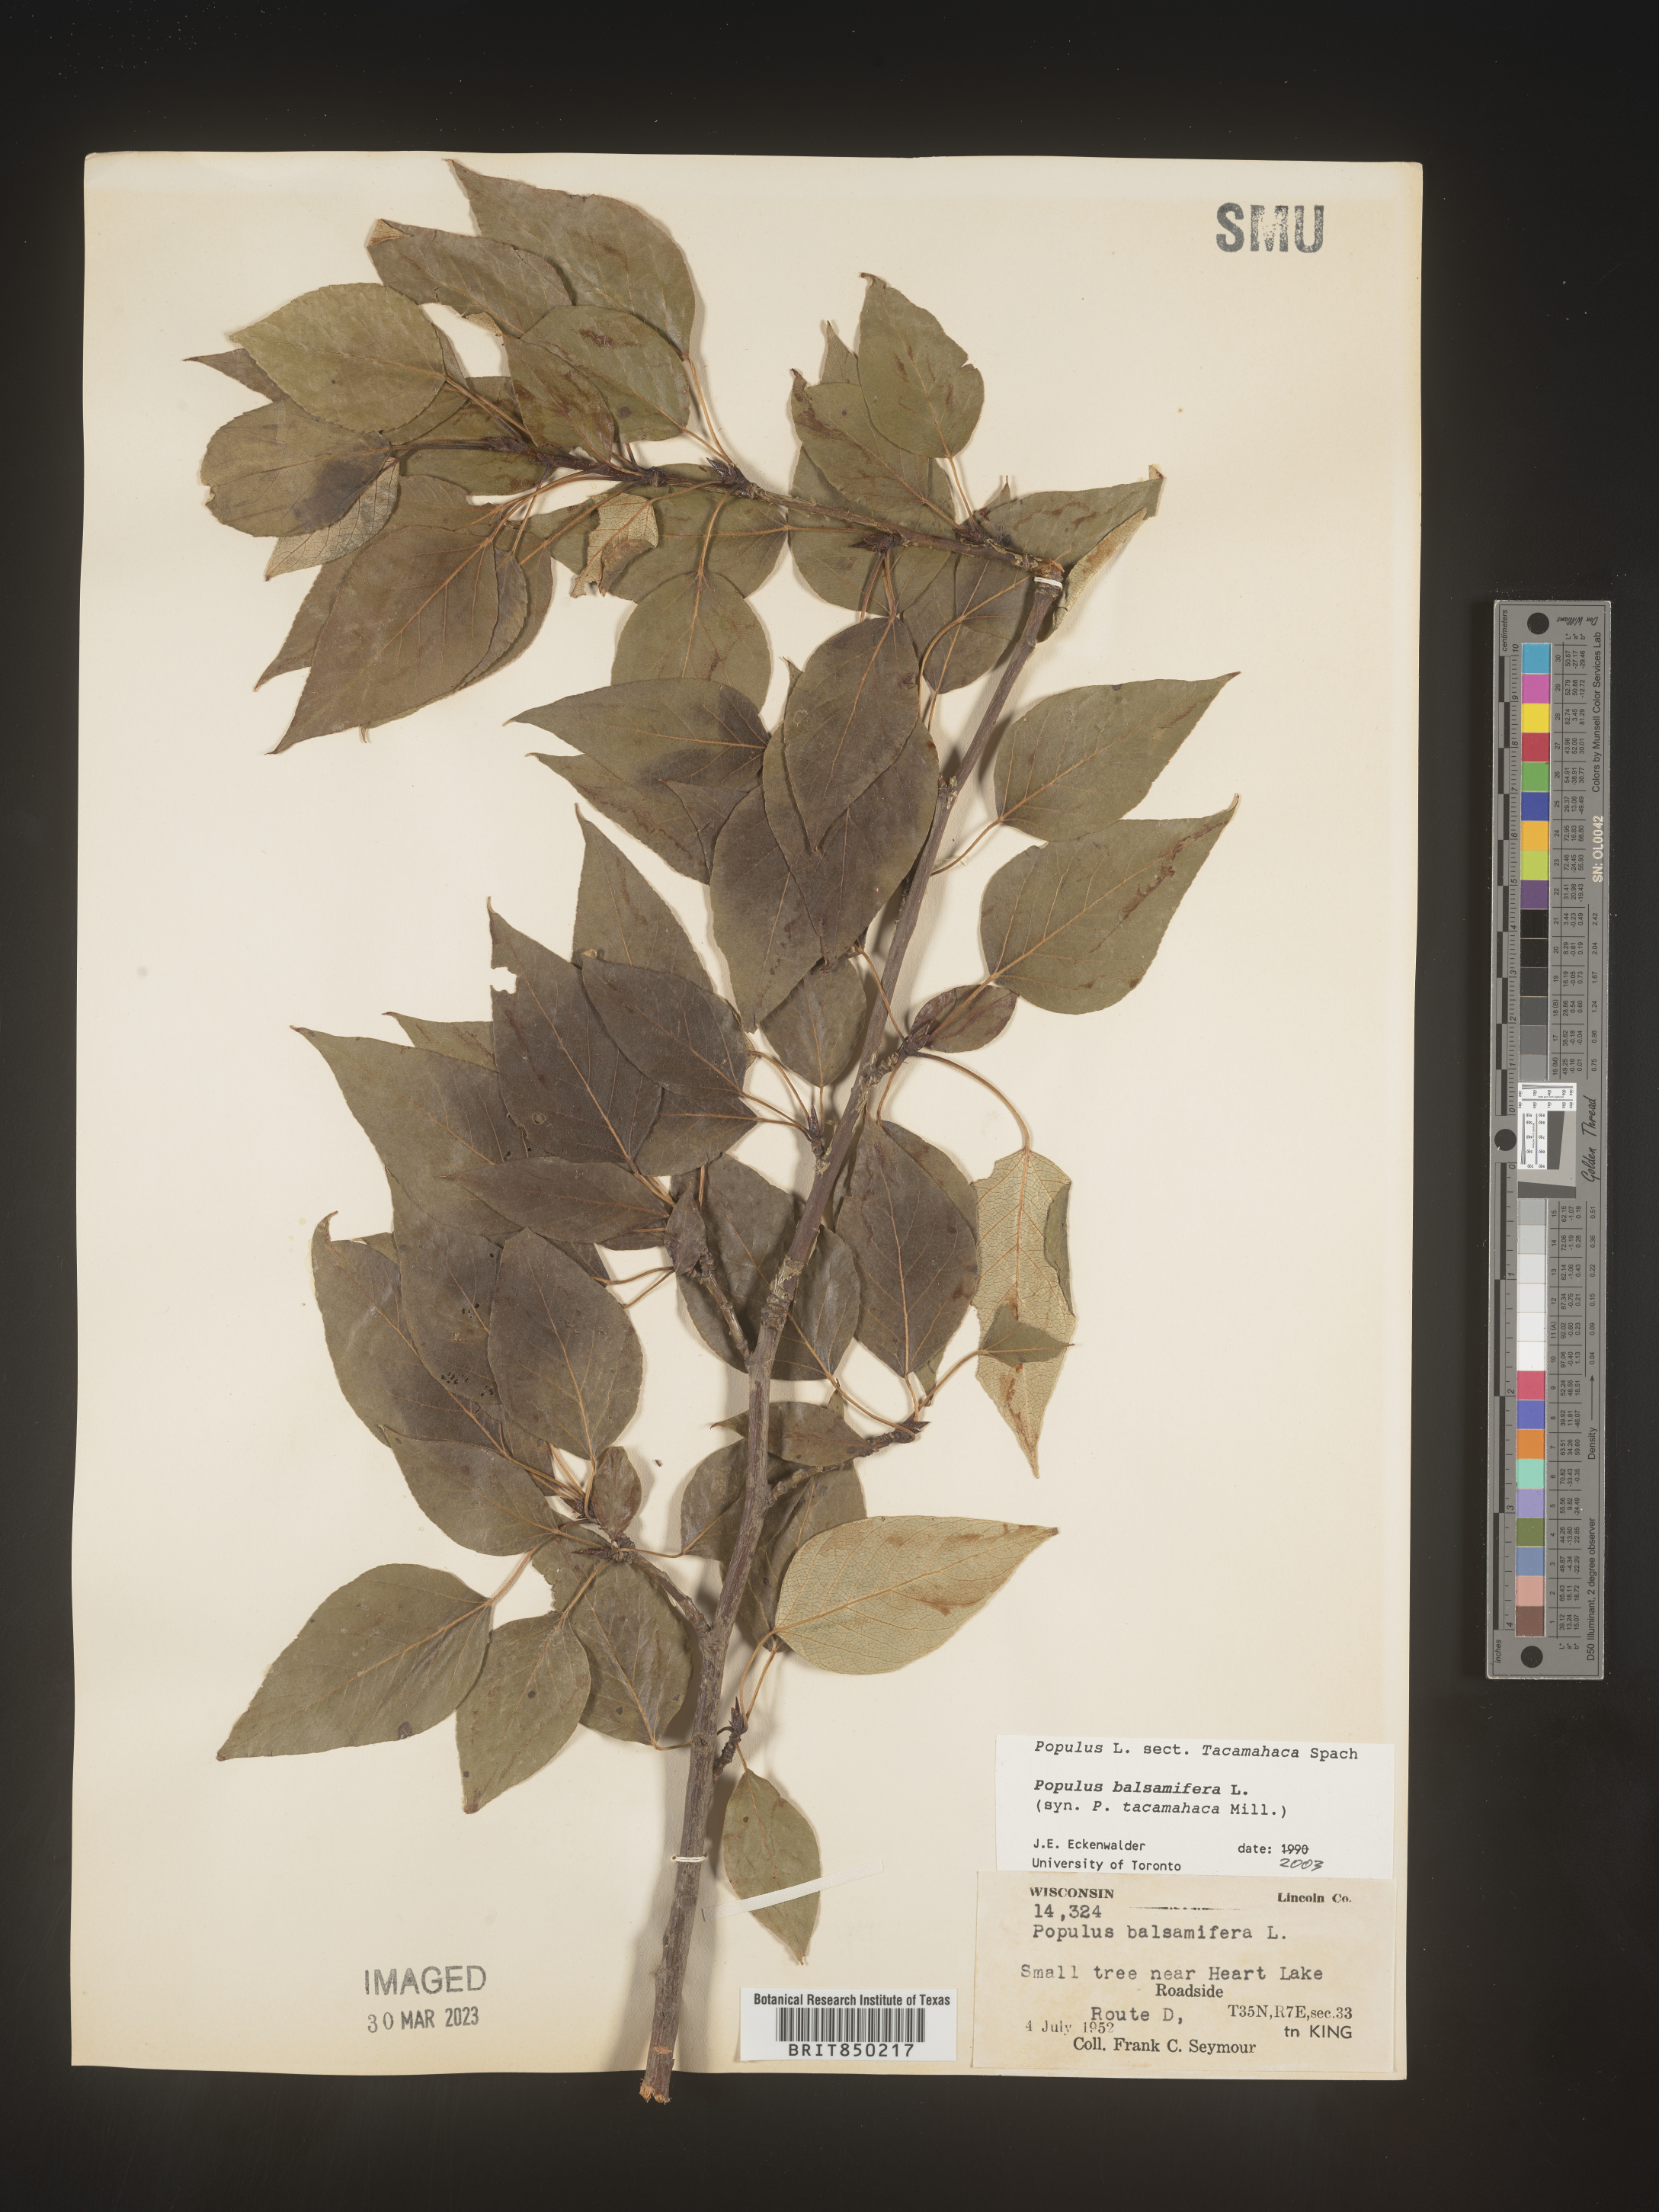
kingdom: Plantae
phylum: Tracheophyta
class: Magnoliopsida
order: Malpighiales
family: Salicaceae
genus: Populus
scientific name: Populus balsamifera
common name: Balsam poplar
